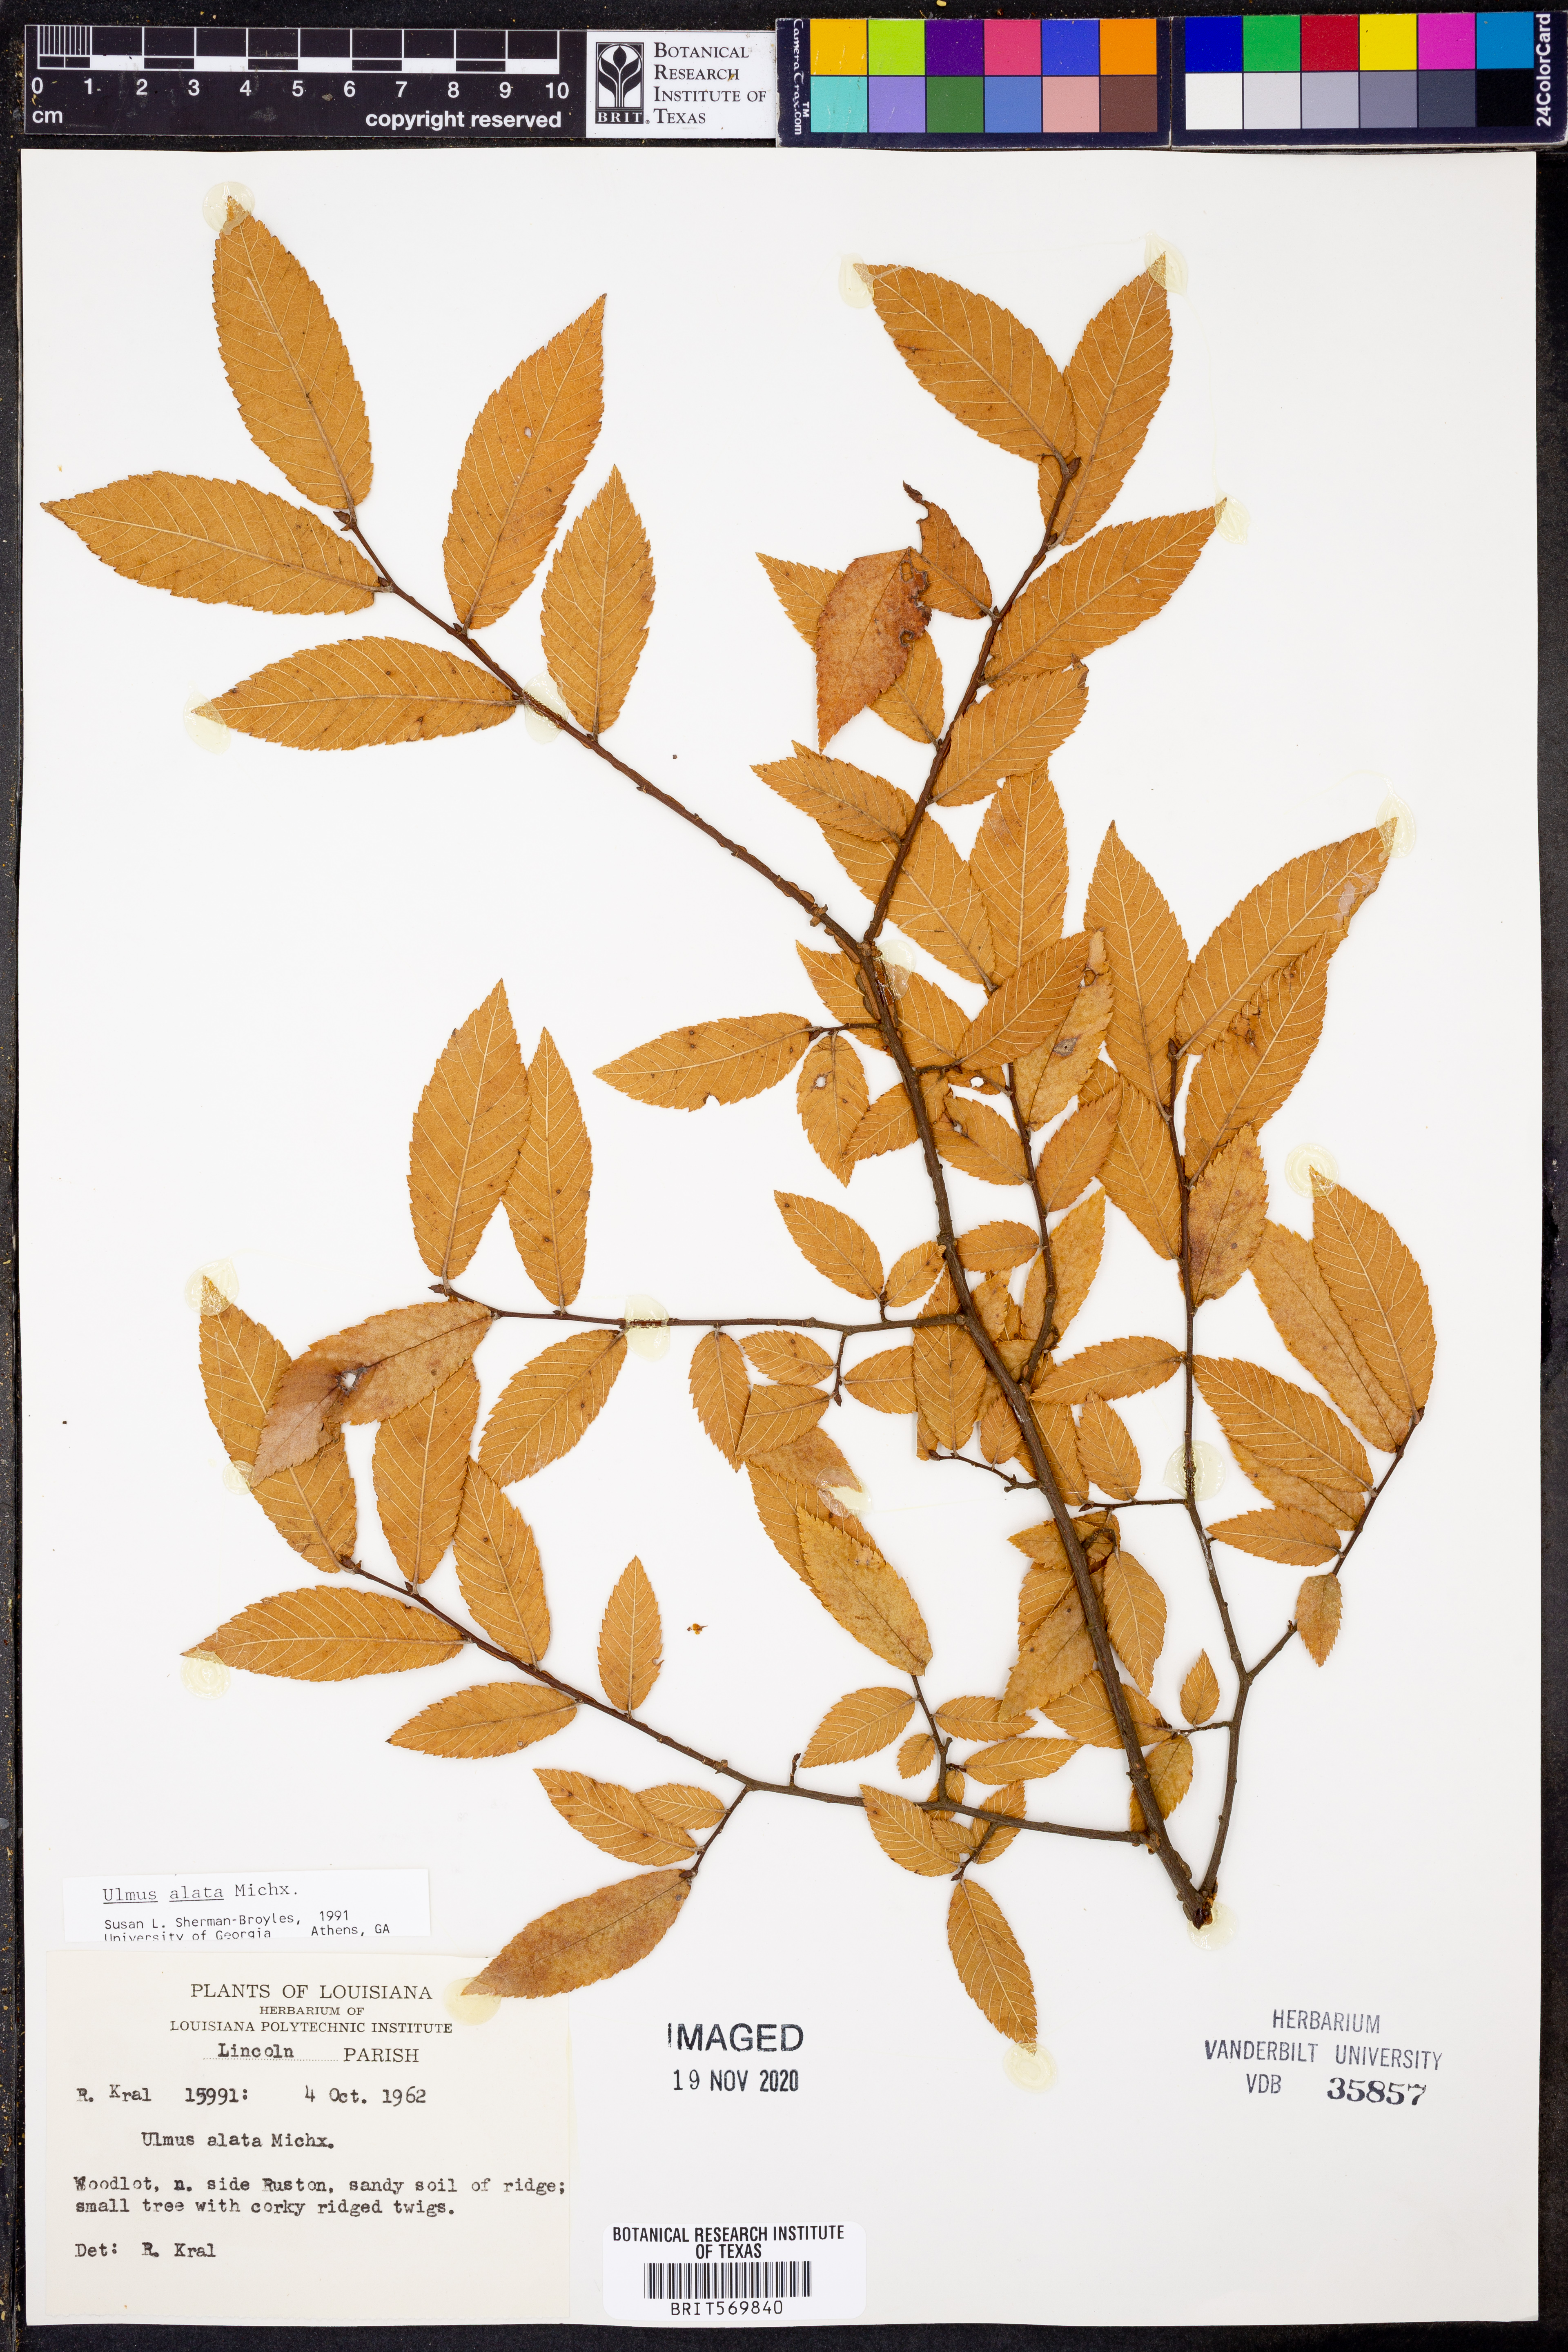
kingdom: Plantae
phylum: Tracheophyta
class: Magnoliopsida
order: Rosales
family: Ulmaceae
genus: Ulmus
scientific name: Ulmus alata
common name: Winged elm
